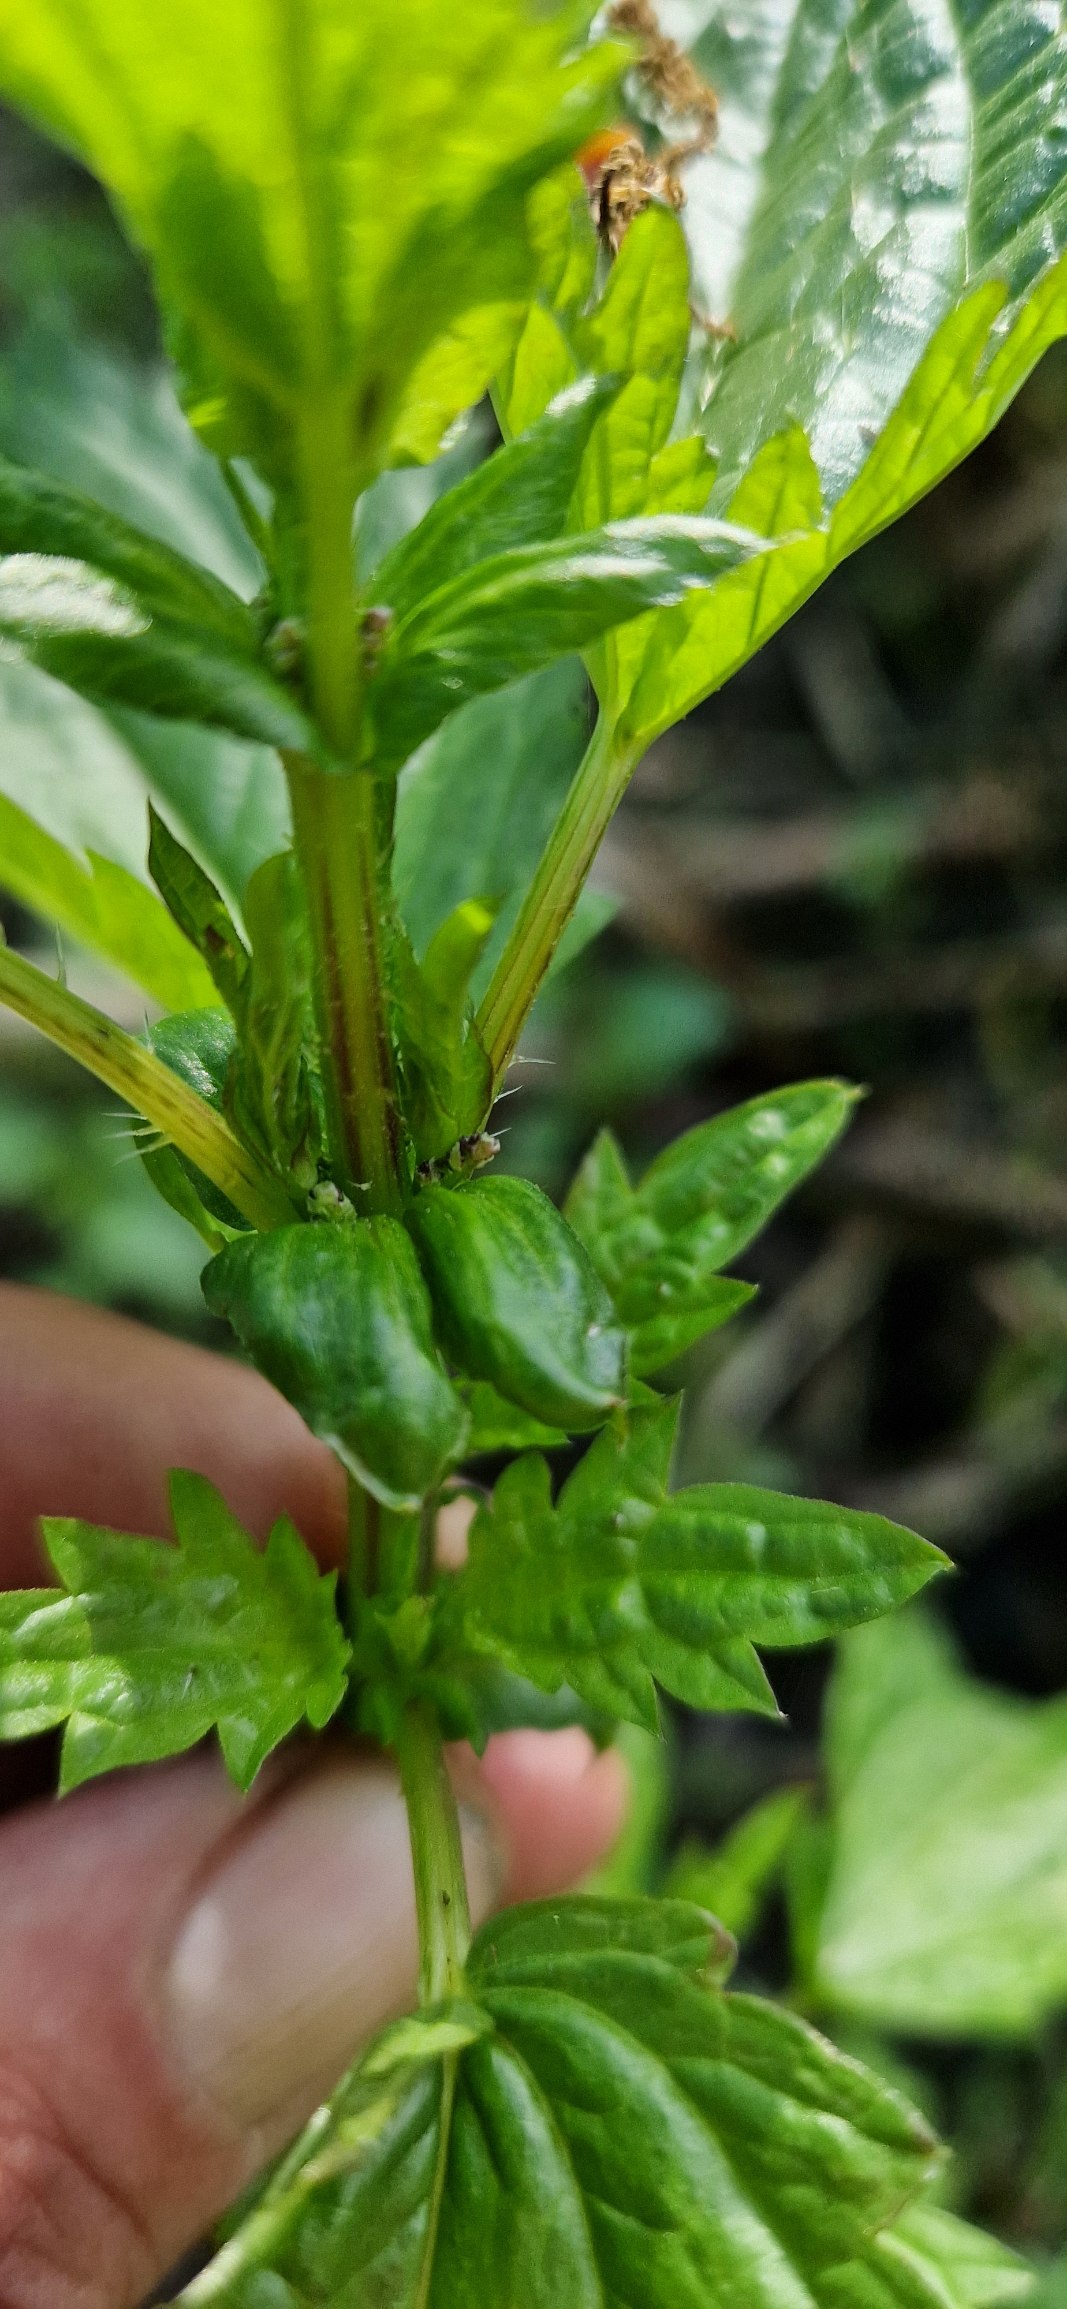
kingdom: Plantae
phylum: Tracheophyta
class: Magnoliopsida
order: Rosales
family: Urticaceae
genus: Urtica
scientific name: Urtica kioviensis
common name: Sump-nælde
